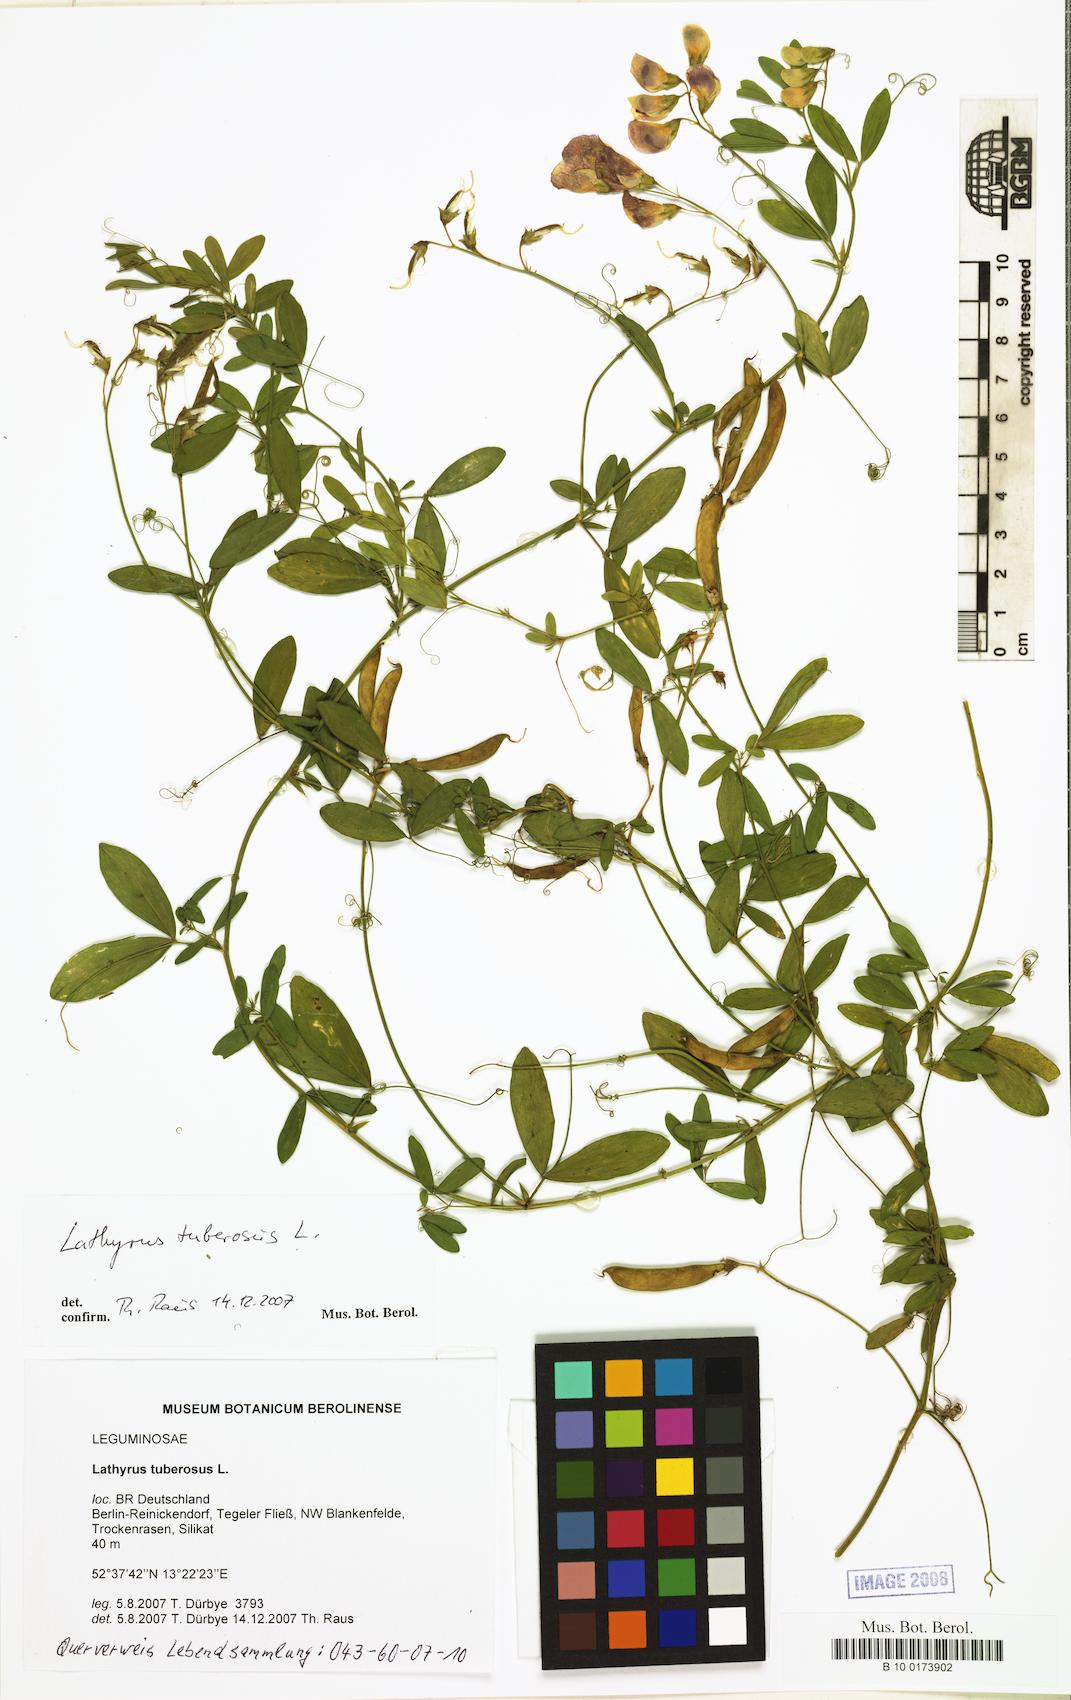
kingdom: Plantae
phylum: Tracheophyta
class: Magnoliopsida
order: Fabales
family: Fabaceae
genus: Lathyrus
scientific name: Lathyrus tuberosus
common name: Tuberous pea
